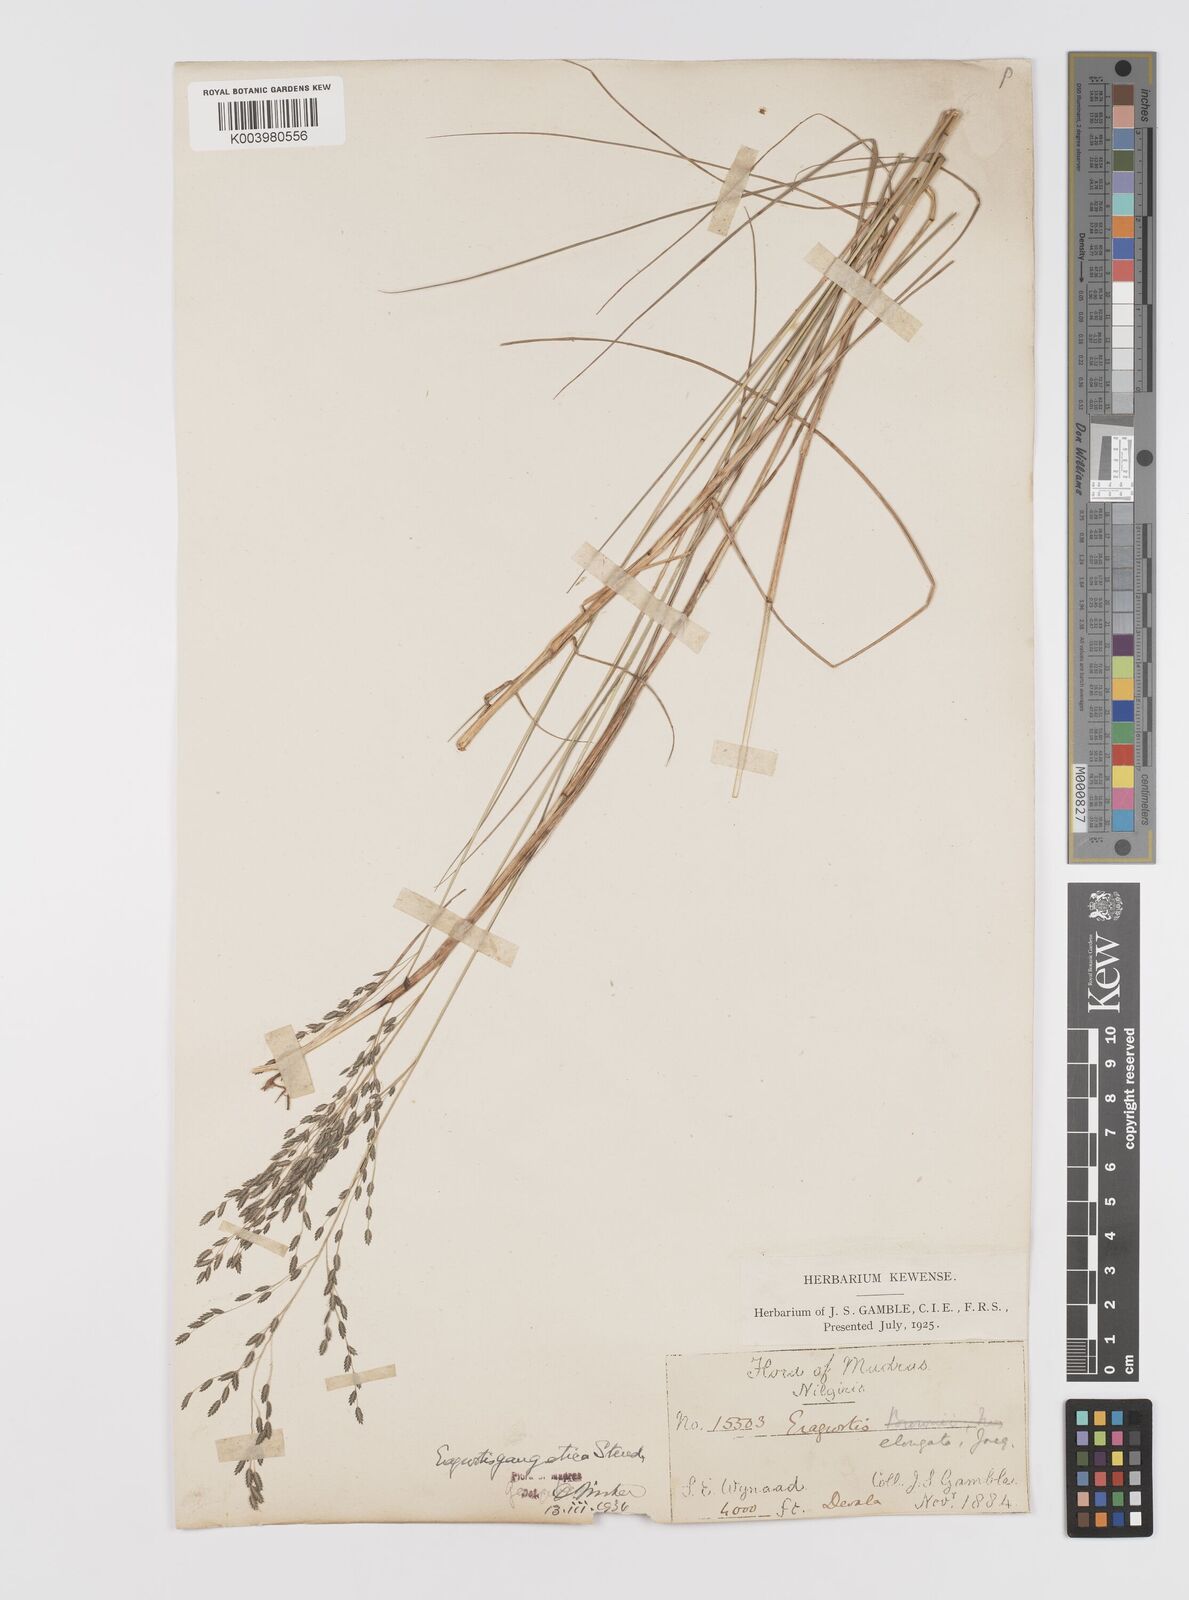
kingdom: Plantae
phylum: Tracheophyta
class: Liliopsida
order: Poales
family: Poaceae
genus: Eragrostis
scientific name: Eragrostis
